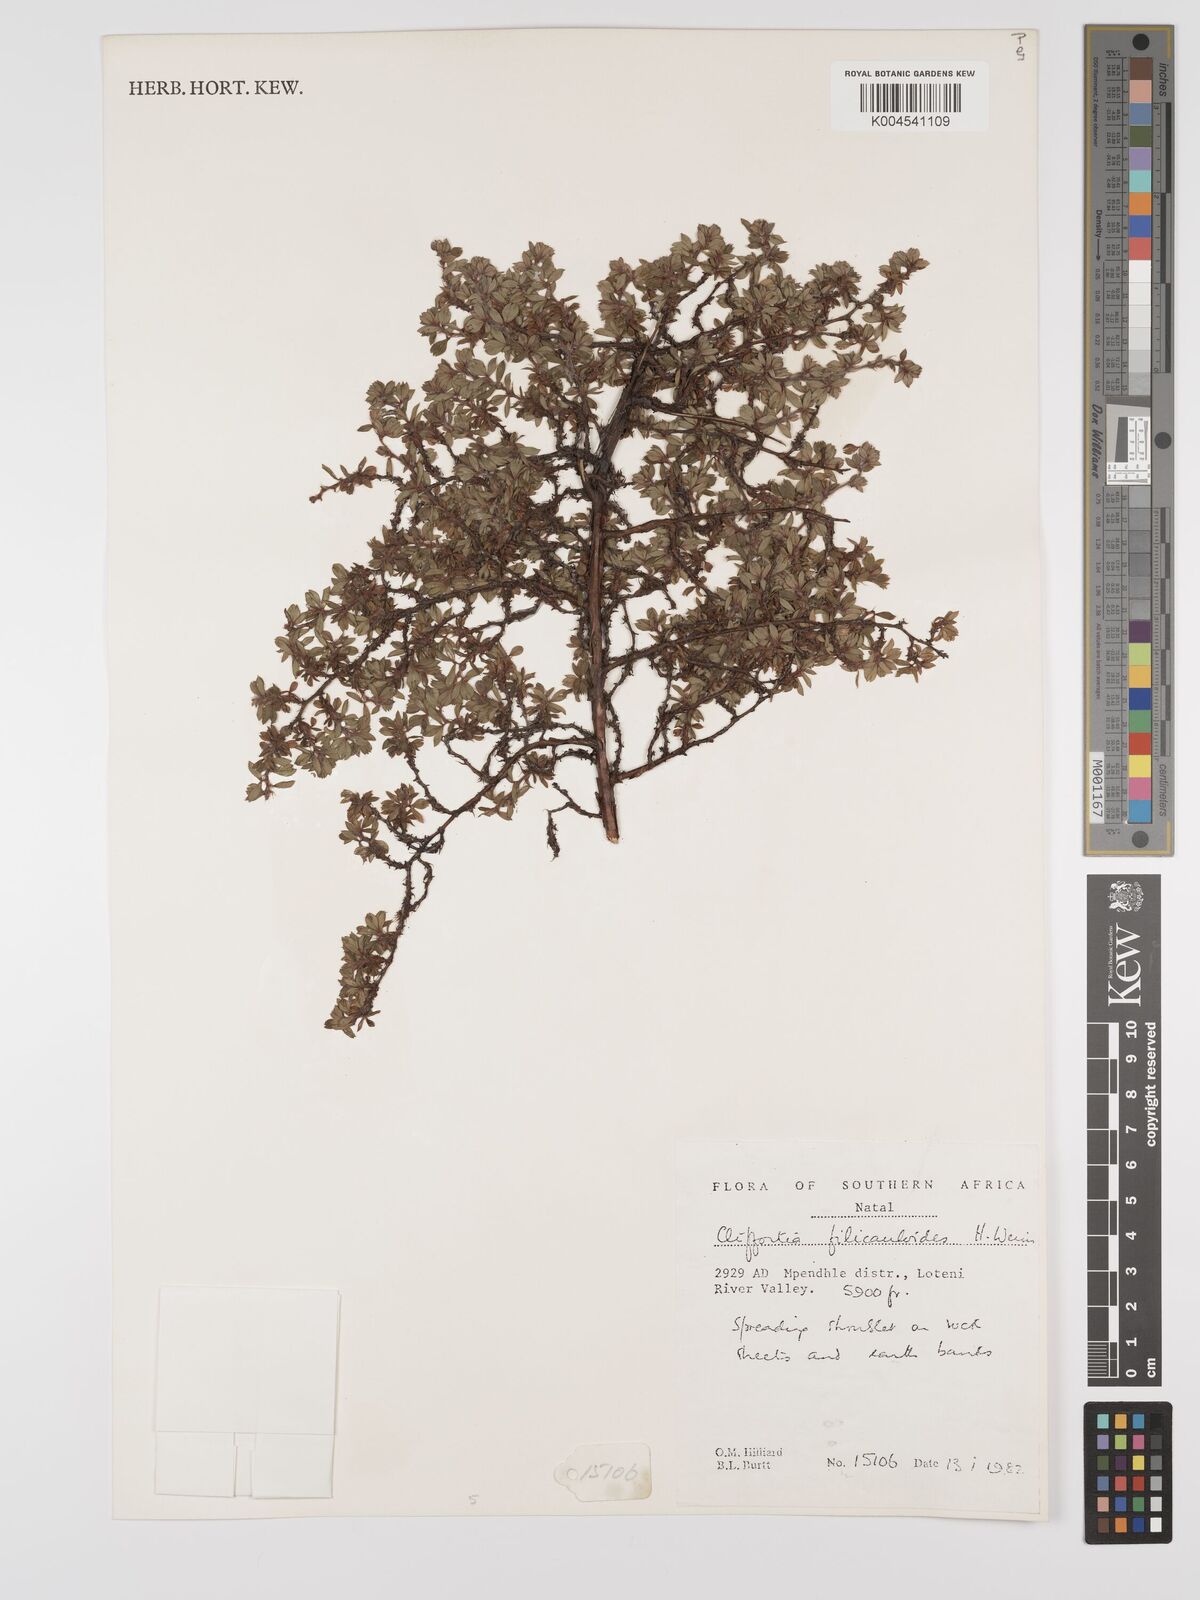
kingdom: Plantae
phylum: Tracheophyta
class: Magnoliopsida
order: Rosales
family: Rosaceae
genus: Cliffortia
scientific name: Cliffortia filicauloides
